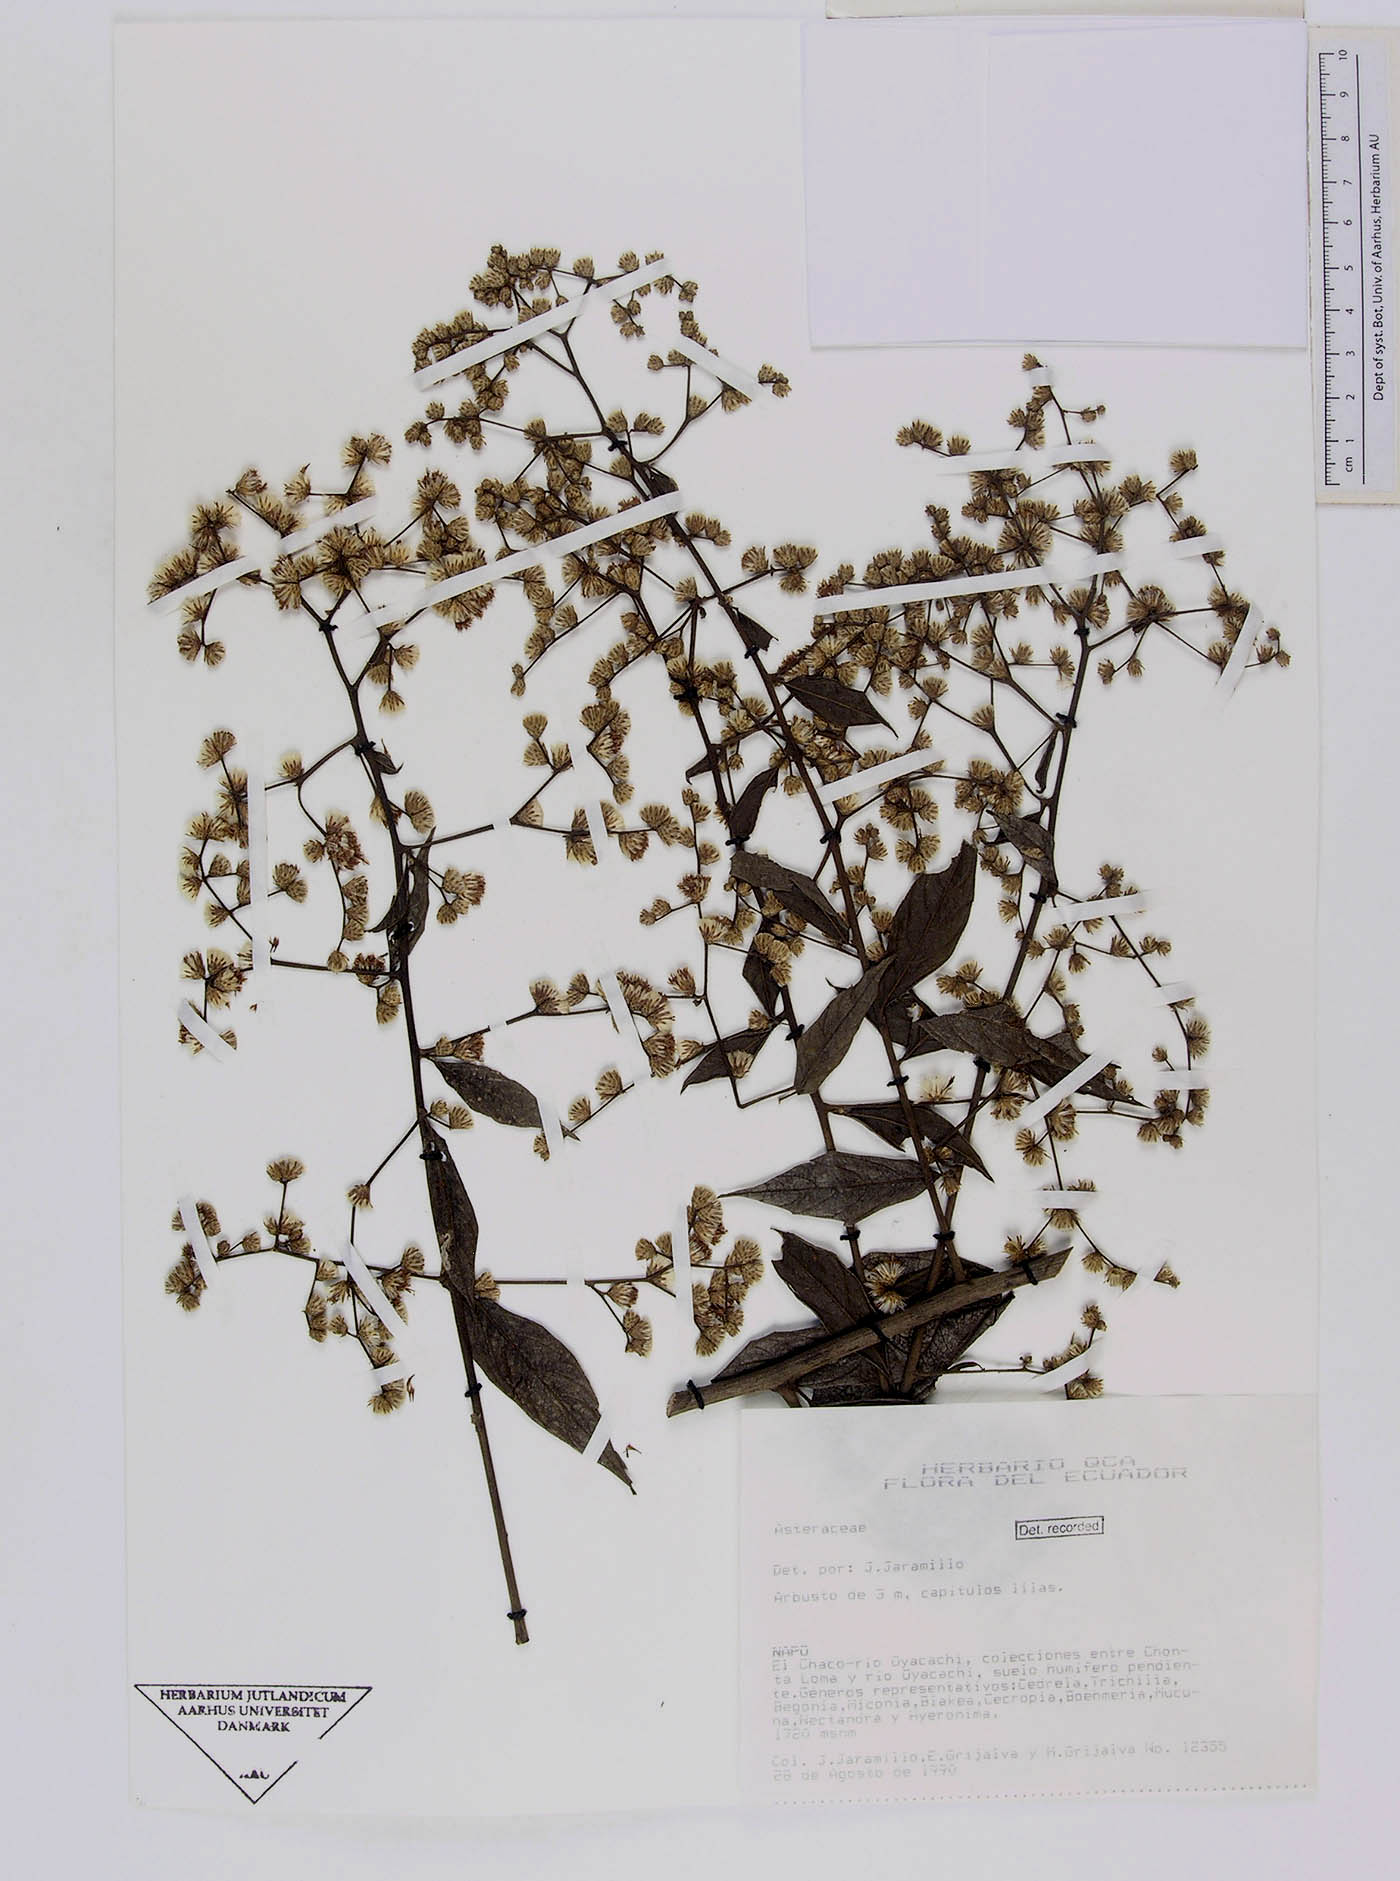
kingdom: Plantae
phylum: Tracheophyta
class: Magnoliopsida
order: Asterales
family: Asteraceae
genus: Lepidaploa
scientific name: Lepidaploa lehmannii
